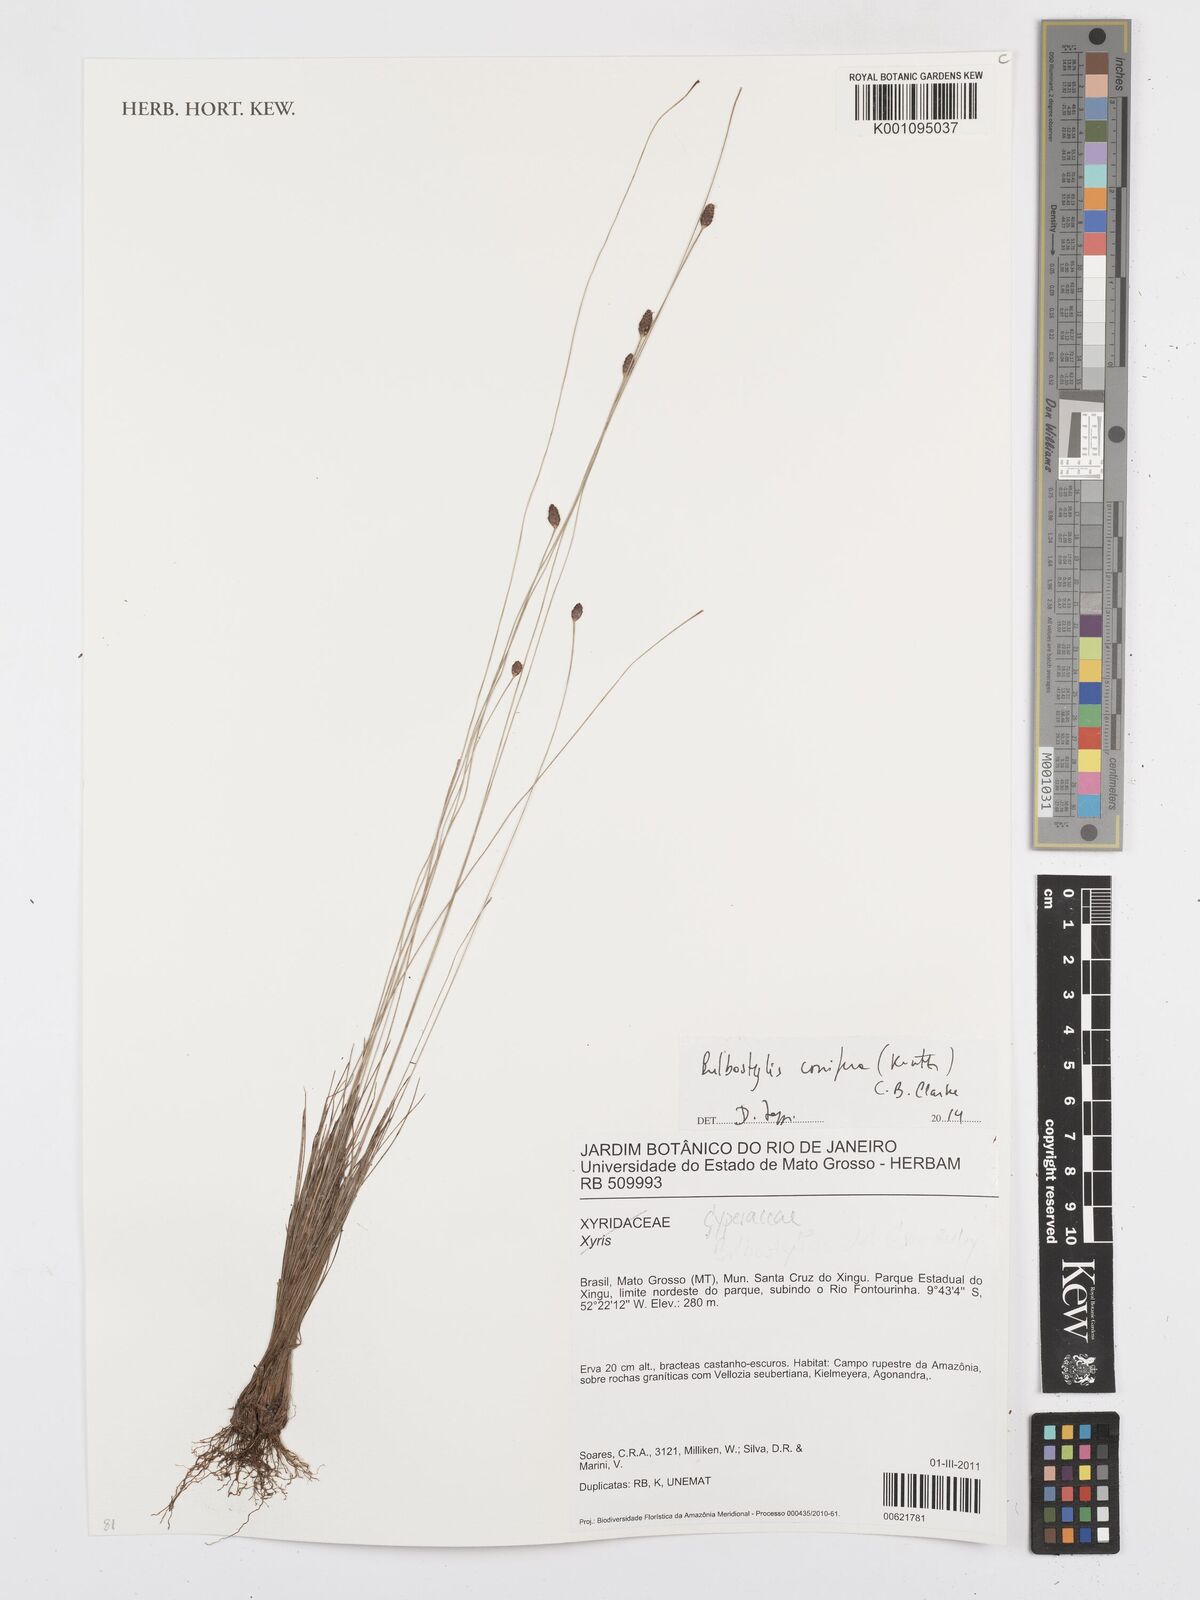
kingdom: Plantae
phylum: Tracheophyta
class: Liliopsida
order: Poales
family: Cyperaceae
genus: Bulbostylis
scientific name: Bulbostylis conifera
